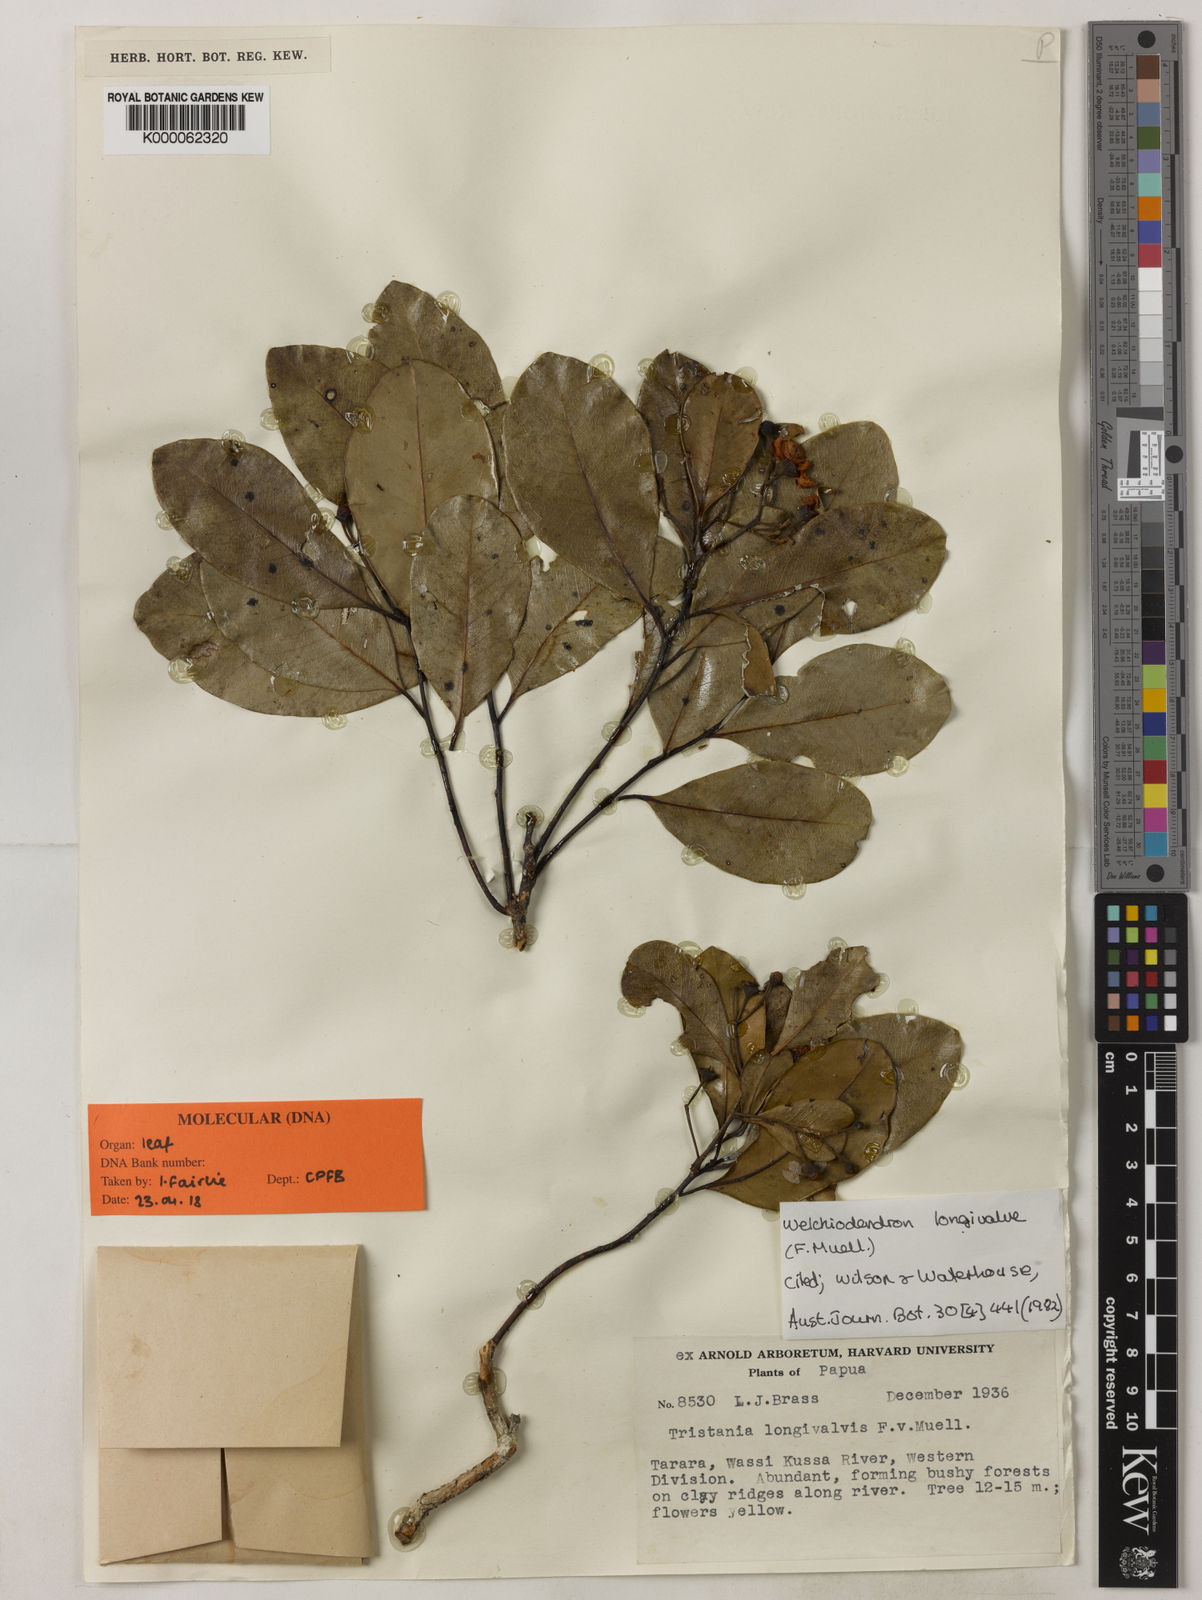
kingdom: Plantae
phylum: Tracheophyta
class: Magnoliopsida
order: Myrtales
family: Myrtaceae
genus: Welchiodendron
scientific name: Welchiodendron
